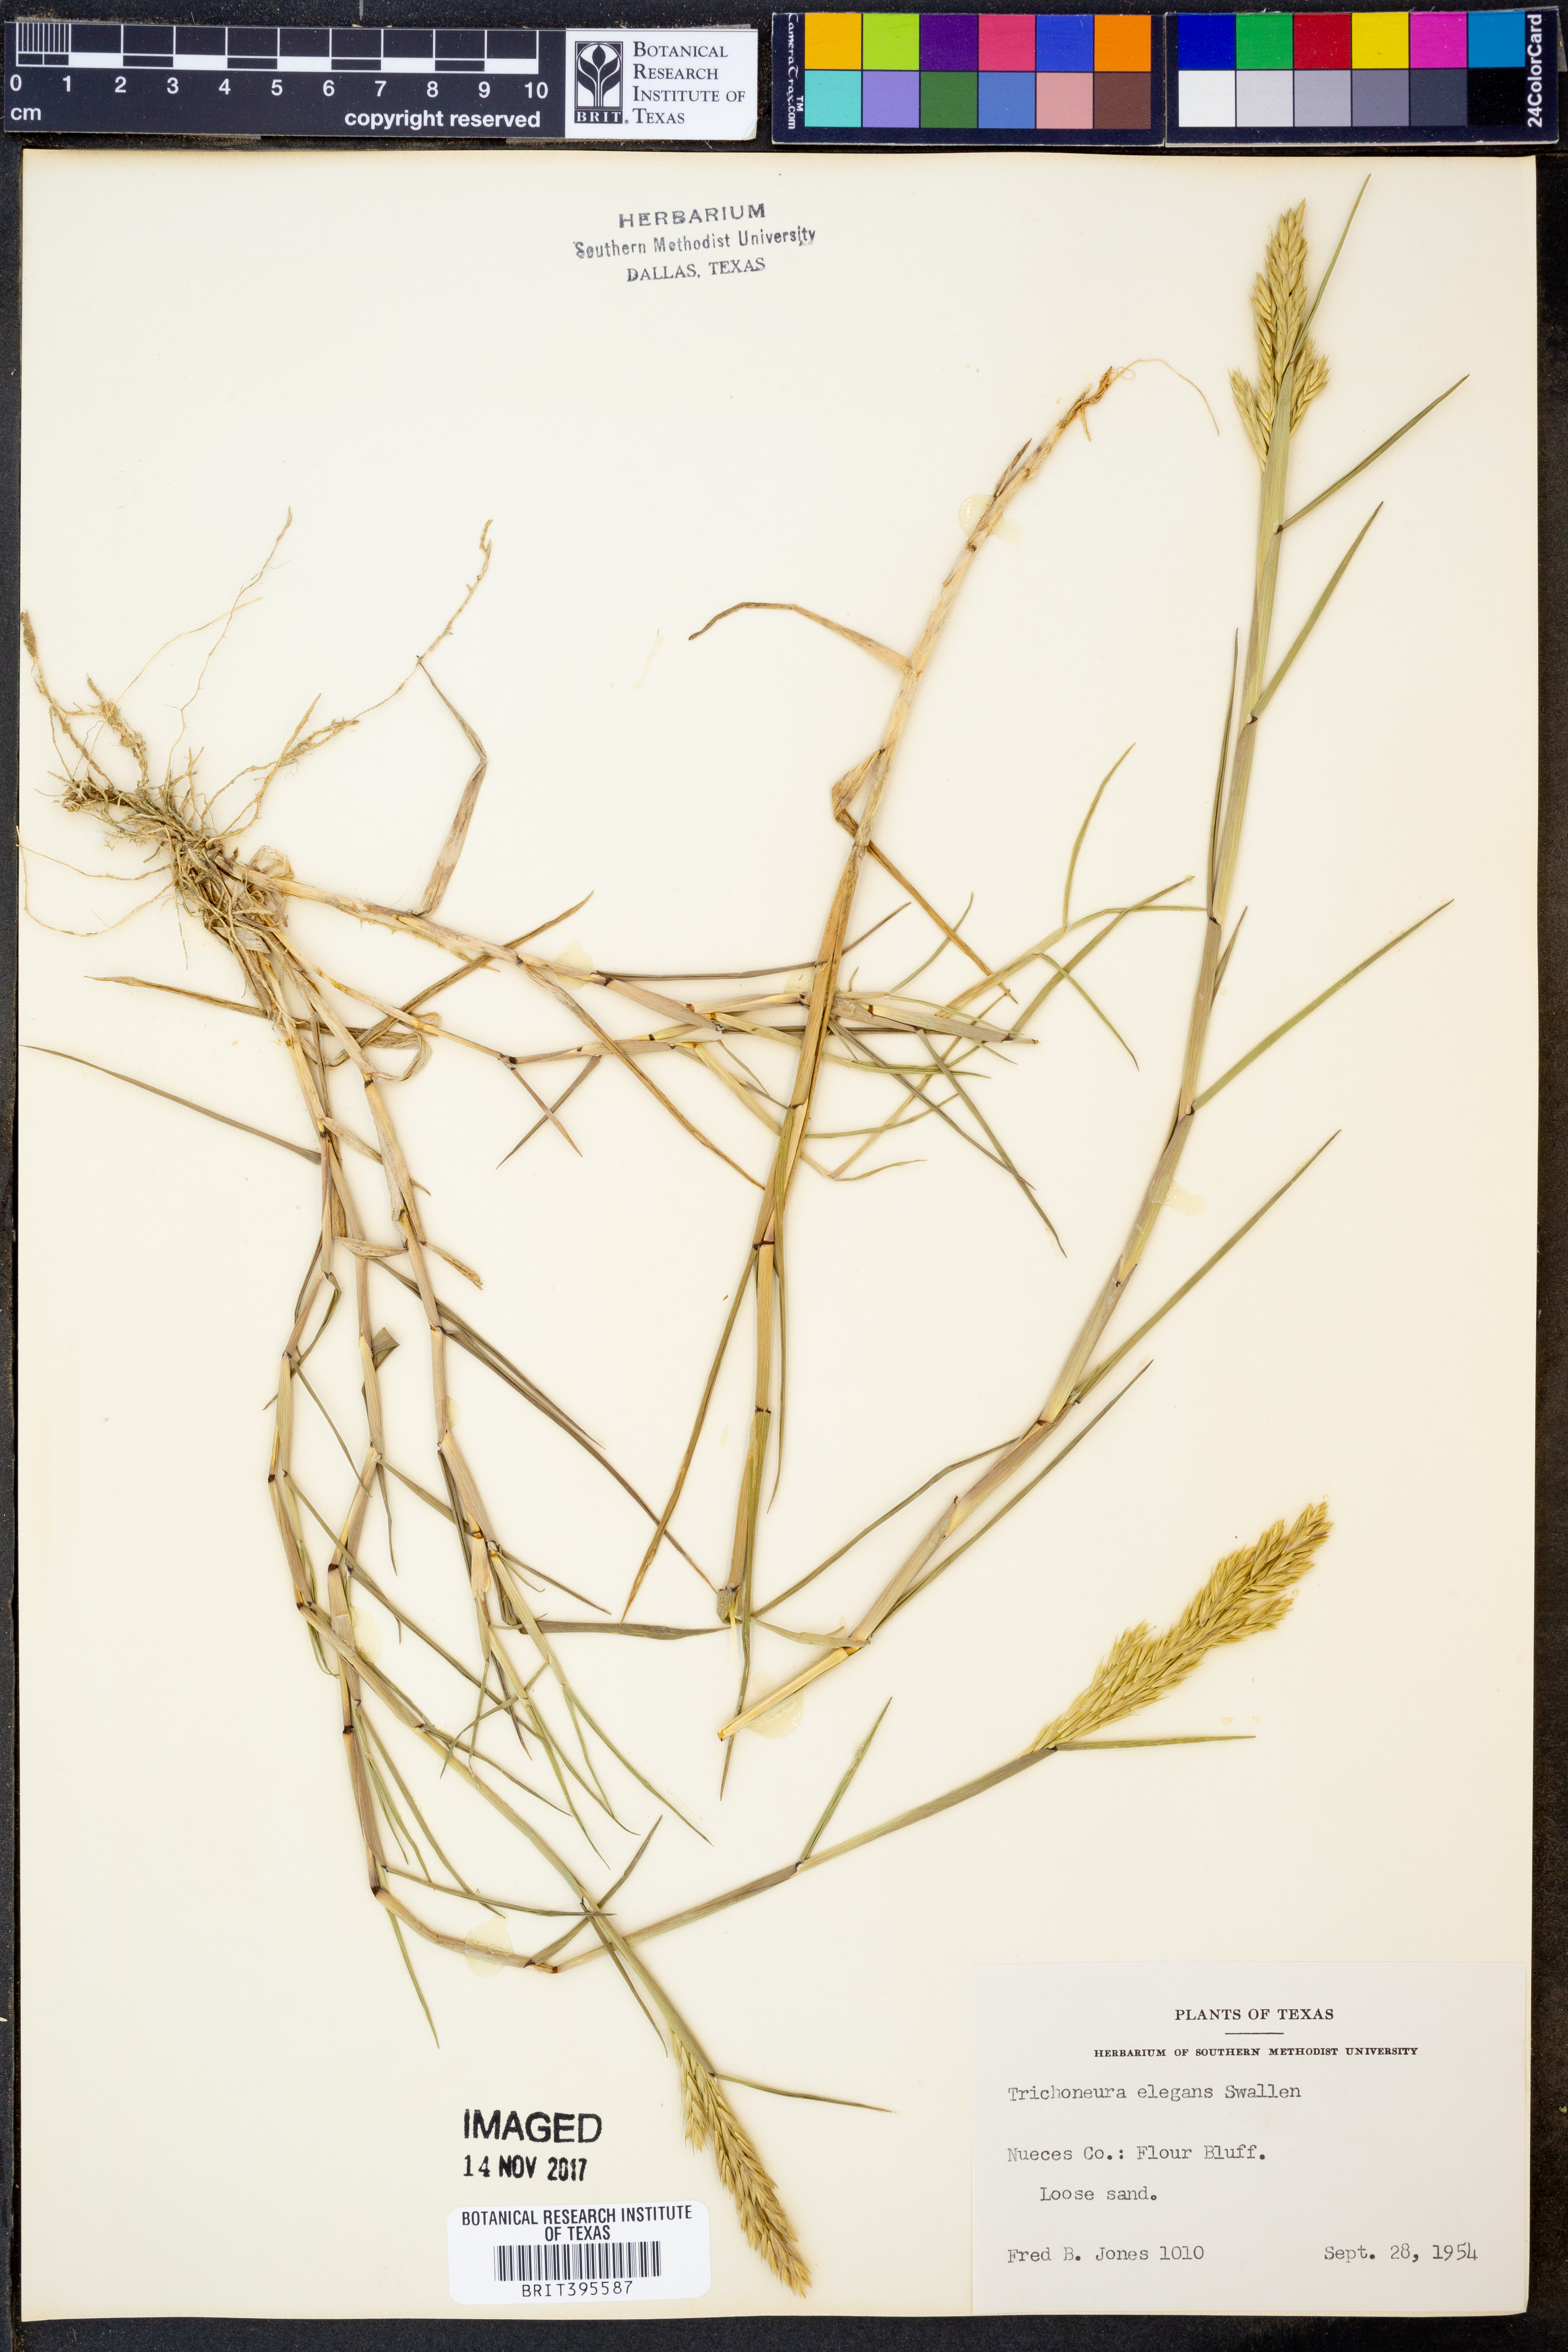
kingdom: Plantae
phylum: Tracheophyta
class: Liliopsida
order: Poales
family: Poaceae
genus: Trichoneura
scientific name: Trichoneura elegans
